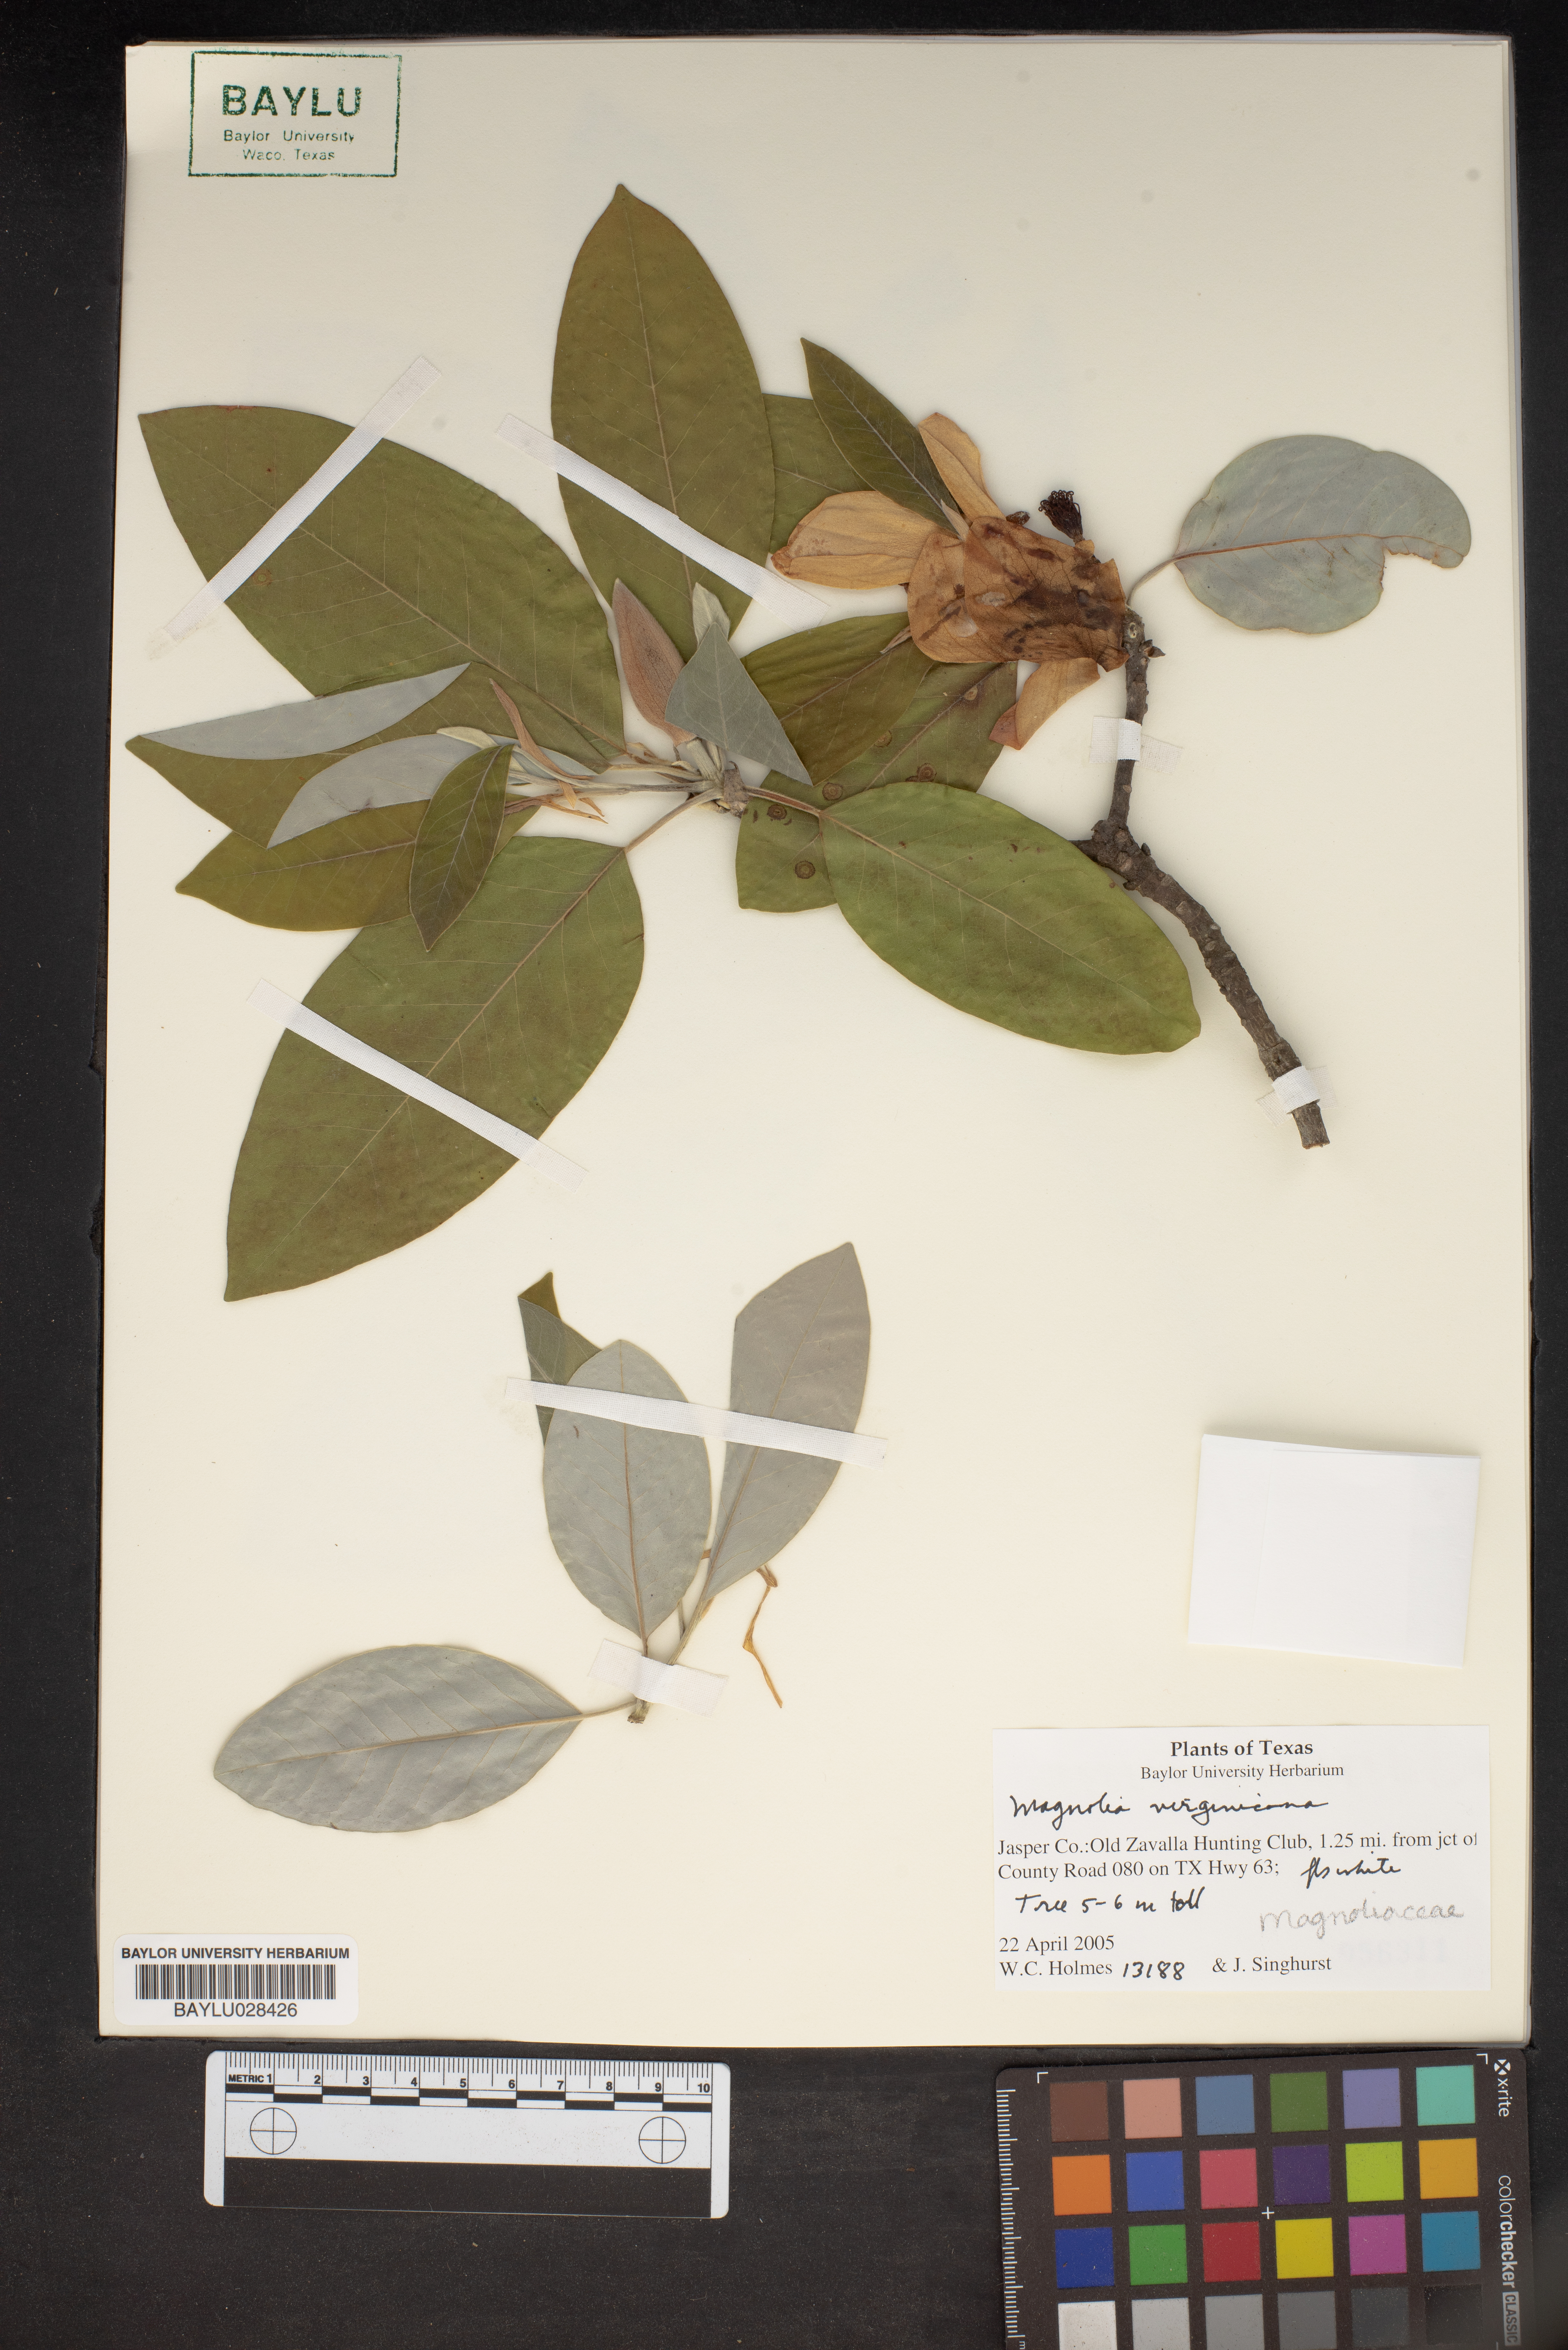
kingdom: Plantae
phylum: Tracheophyta
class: Magnoliopsida
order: Magnoliales
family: Magnoliaceae
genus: Magnolia
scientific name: Magnolia virginiana
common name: Swamp bay
